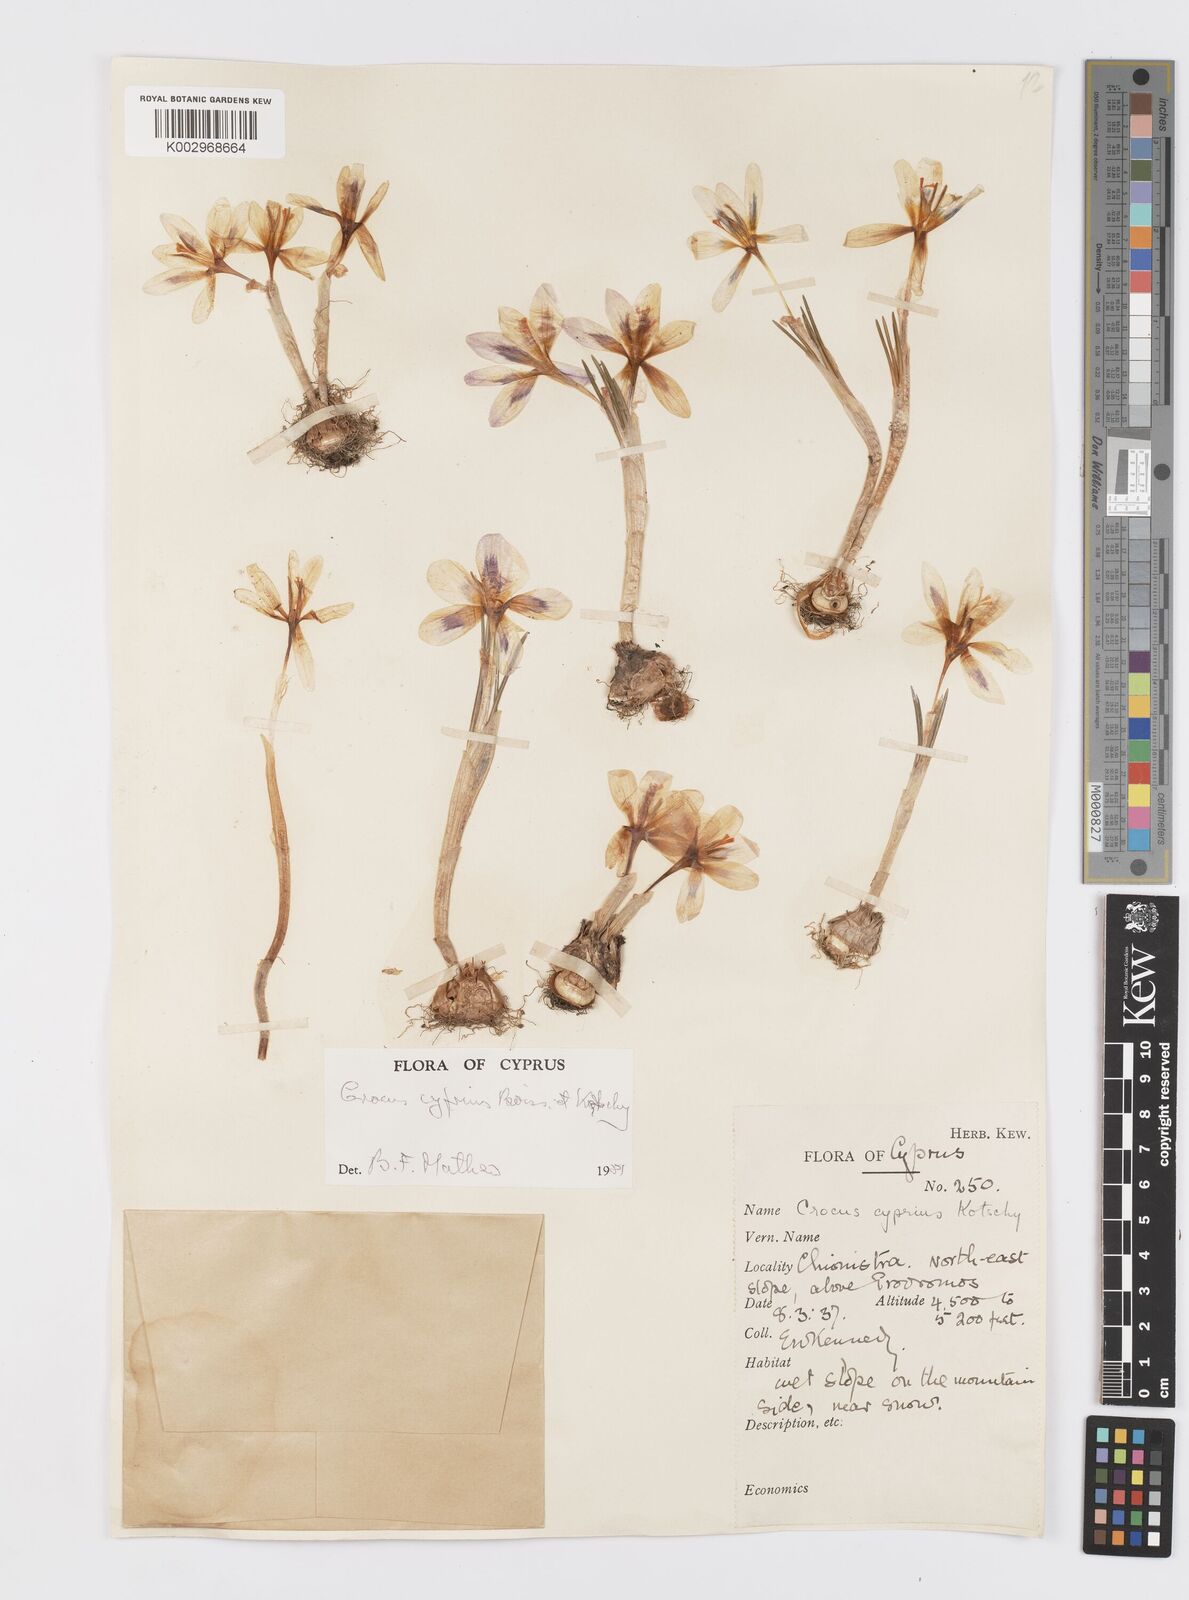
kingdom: Plantae
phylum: Tracheophyta
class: Liliopsida
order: Asparagales
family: Iridaceae
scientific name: Iridaceae
